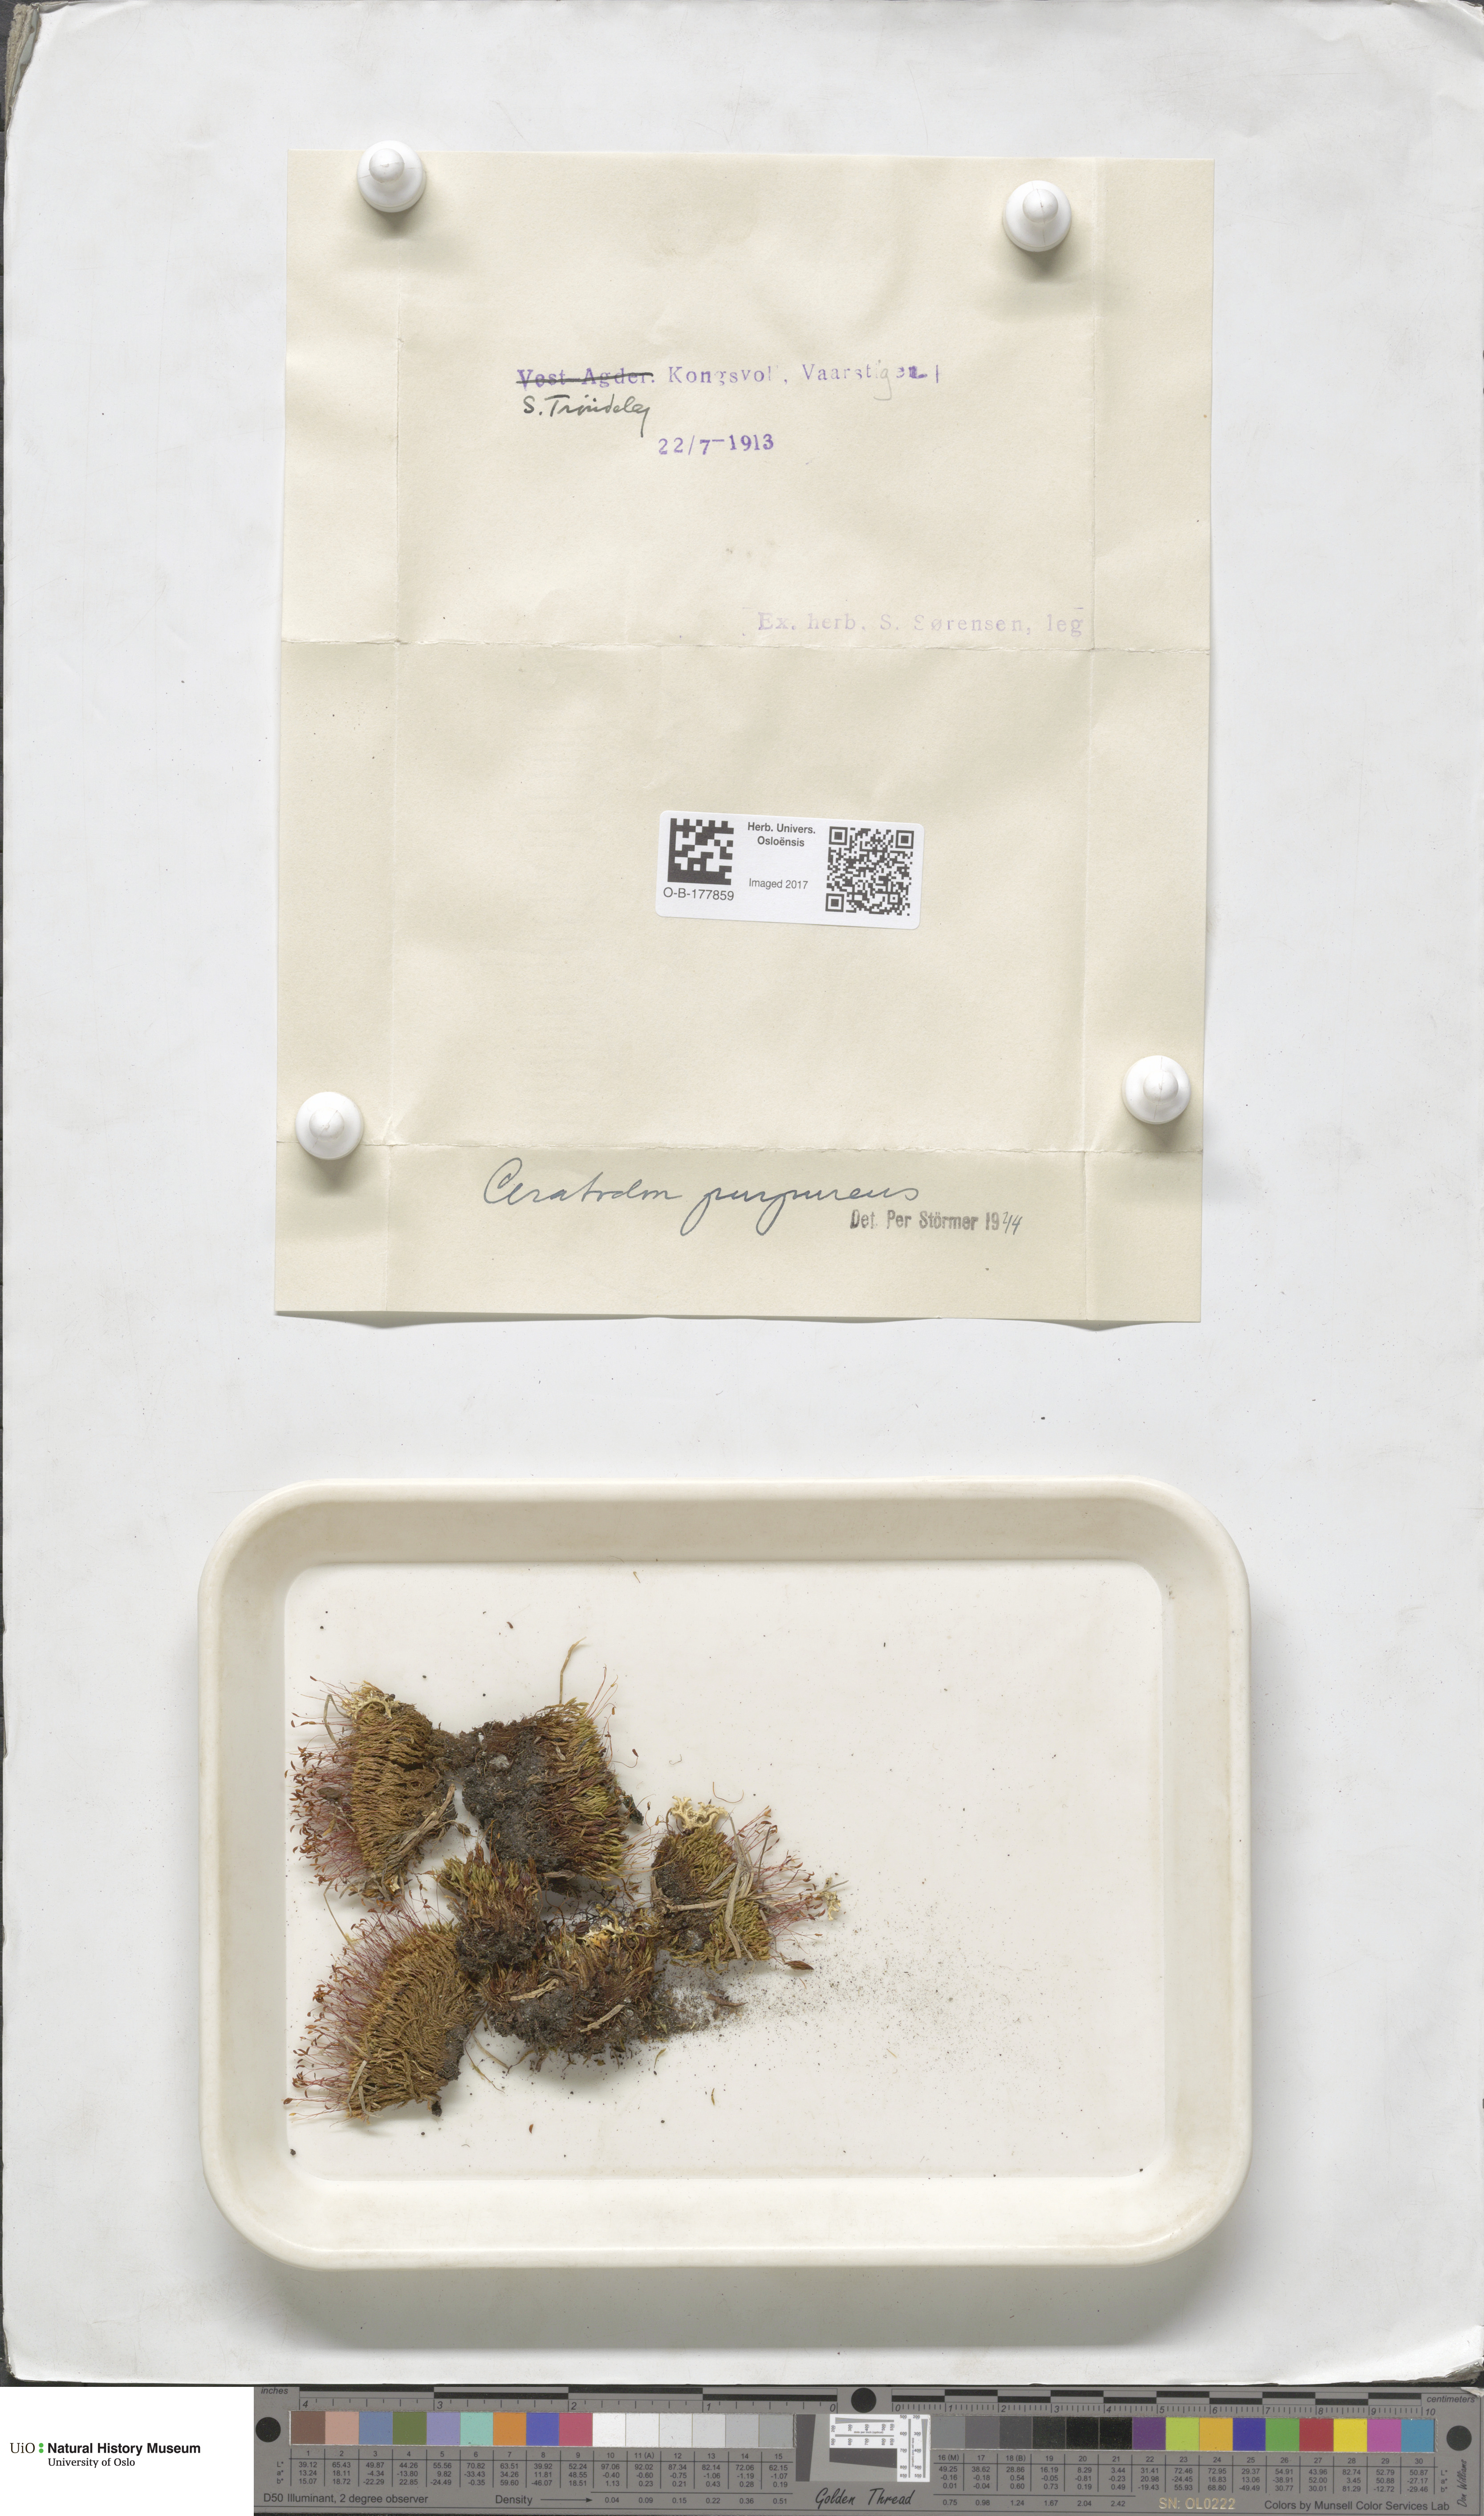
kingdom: Plantae
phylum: Bryophyta
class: Bryopsida
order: Dicranales
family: Ditrichaceae
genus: Ceratodon
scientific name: Ceratodon purpureus
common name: Redshank
